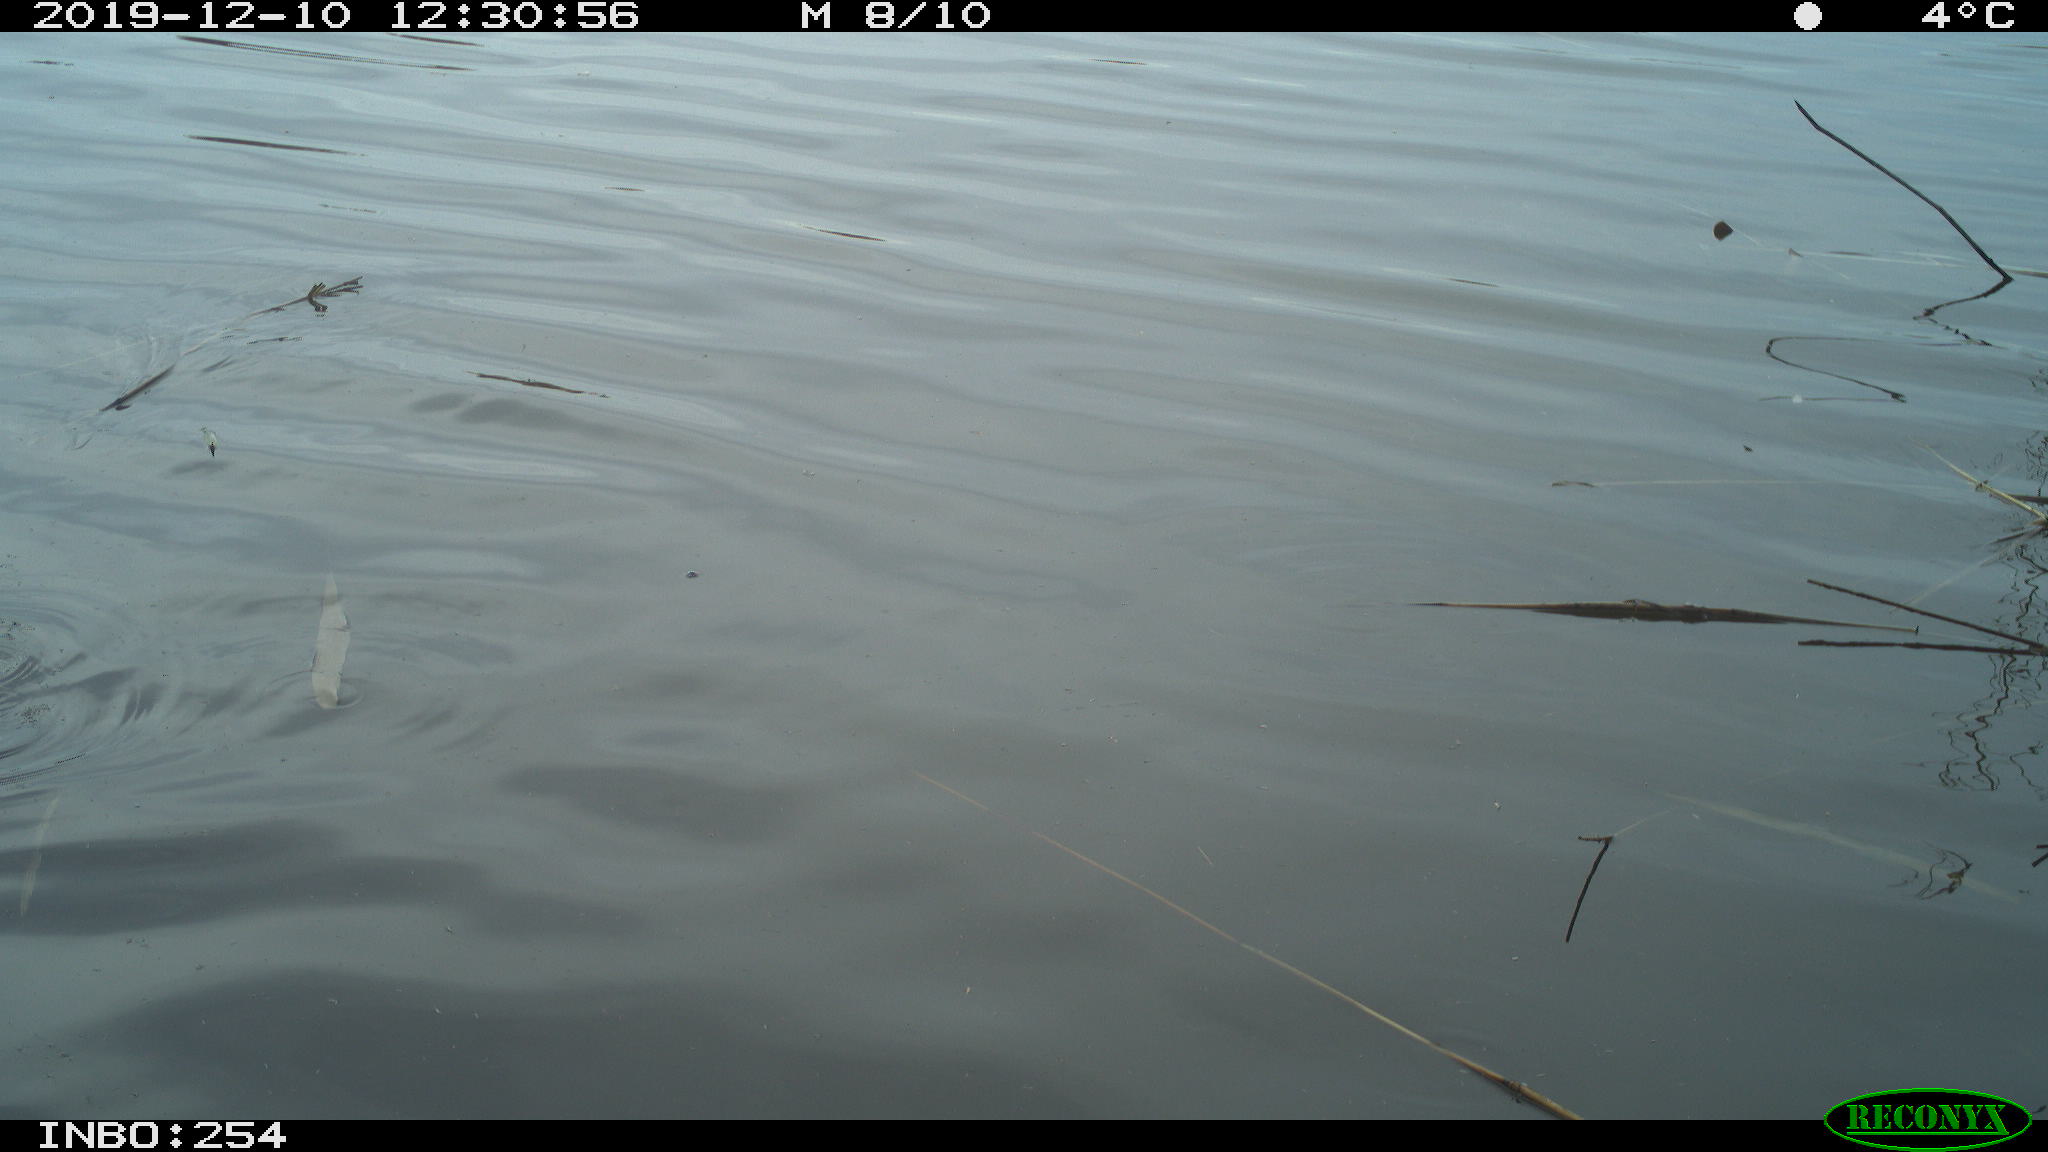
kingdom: Animalia
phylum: Chordata
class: Aves
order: Gruiformes
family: Rallidae
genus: Gallinula
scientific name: Gallinula chloropus
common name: Common moorhen
